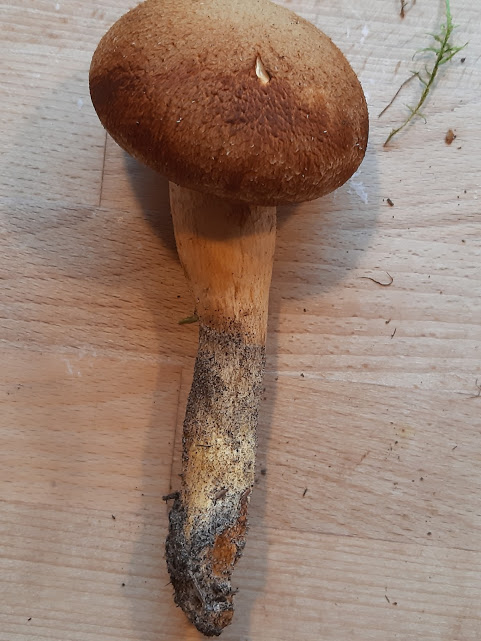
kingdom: Fungi
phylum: Basidiomycota
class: Agaricomycetes
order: Agaricales
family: Hymenogastraceae
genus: Gymnopilus
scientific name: Gymnopilus
